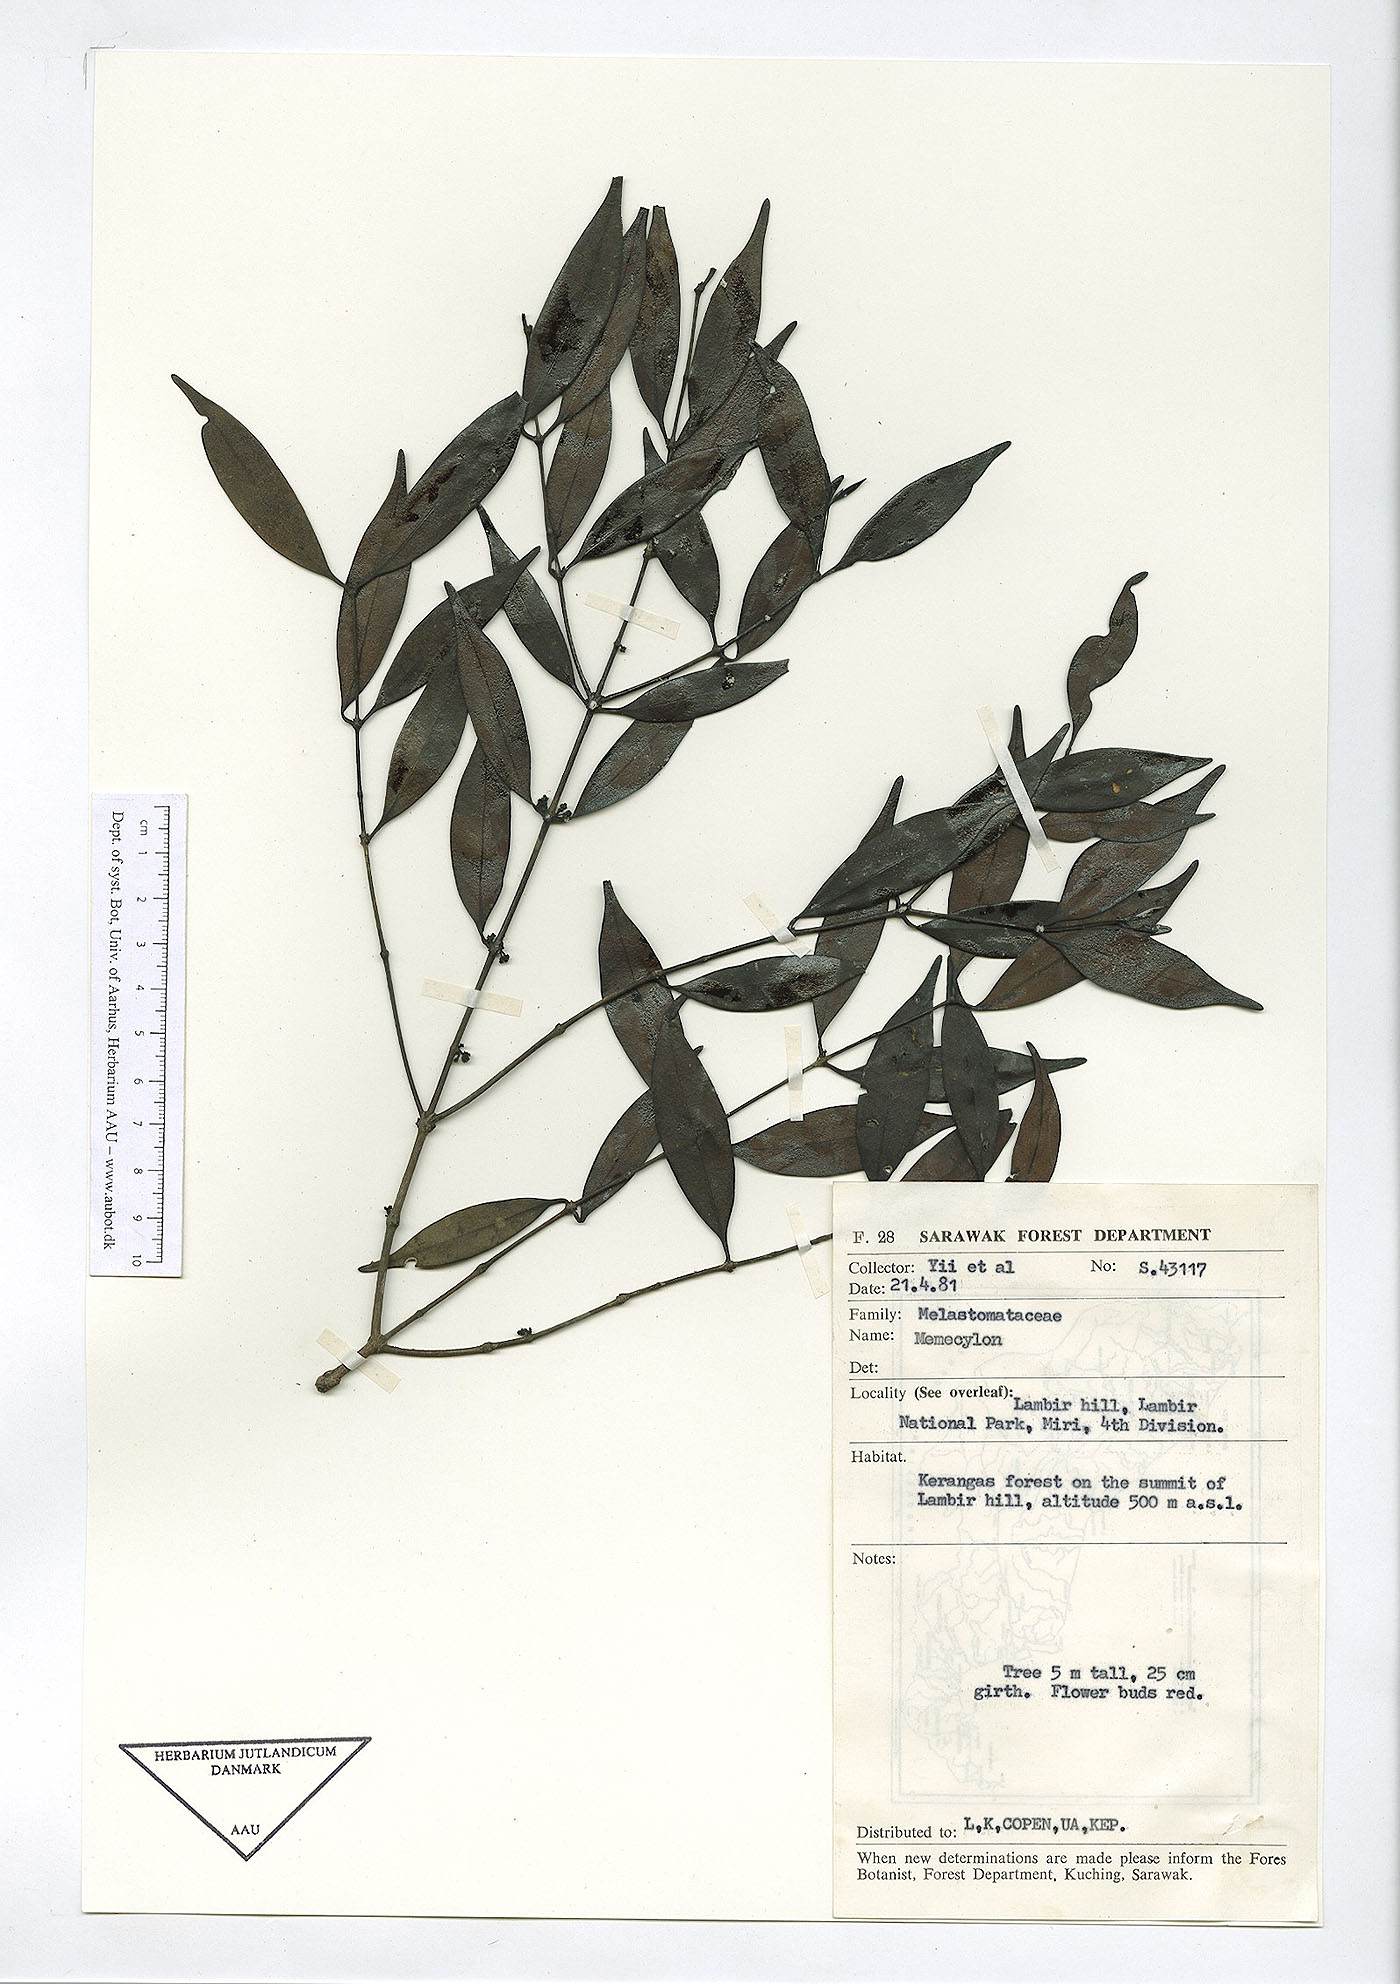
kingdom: Plantae
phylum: Tracheophyta
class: Magnoliopsida
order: Myrtales
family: Melastomataceae
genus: Memecylon
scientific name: Memecylon
